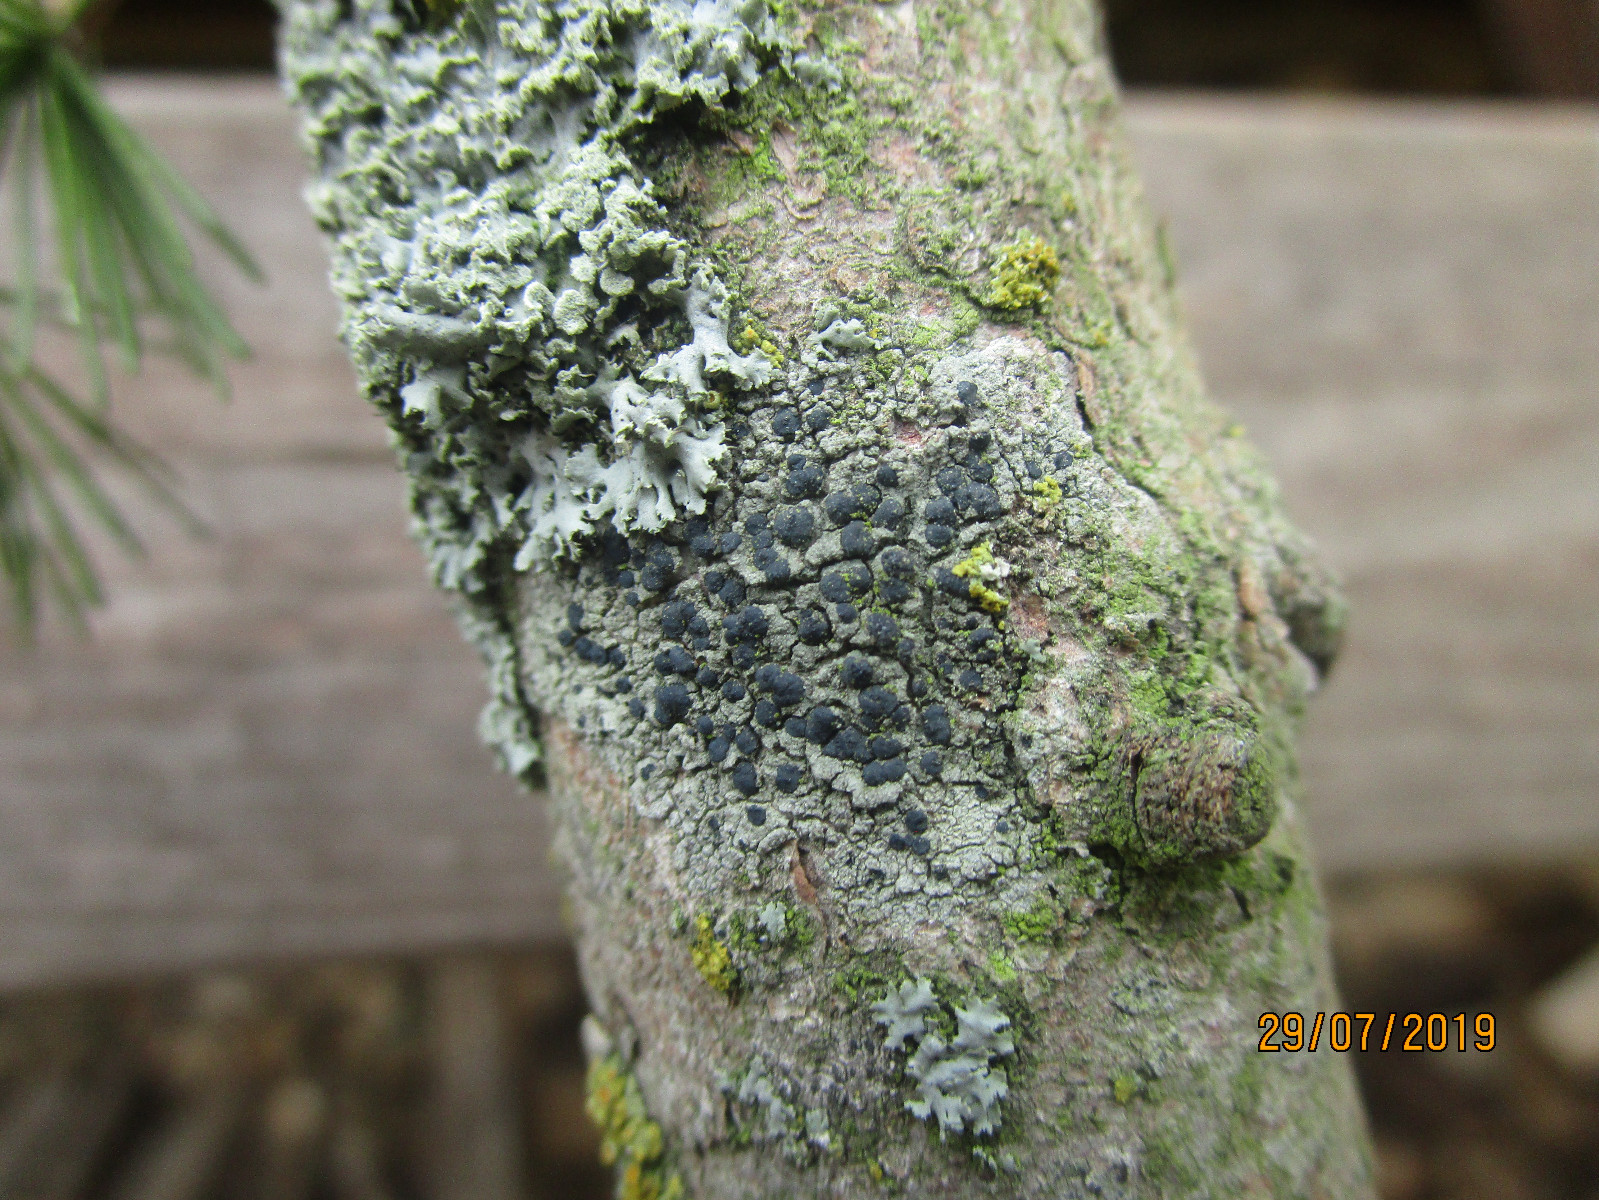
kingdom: Fungi
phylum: Ascomycota
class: Lecanoromycetes
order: Lecanorales
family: Lecanoraceae
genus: Lecidella
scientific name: Lecidella elaeochroma
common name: grågrøn skivelav
